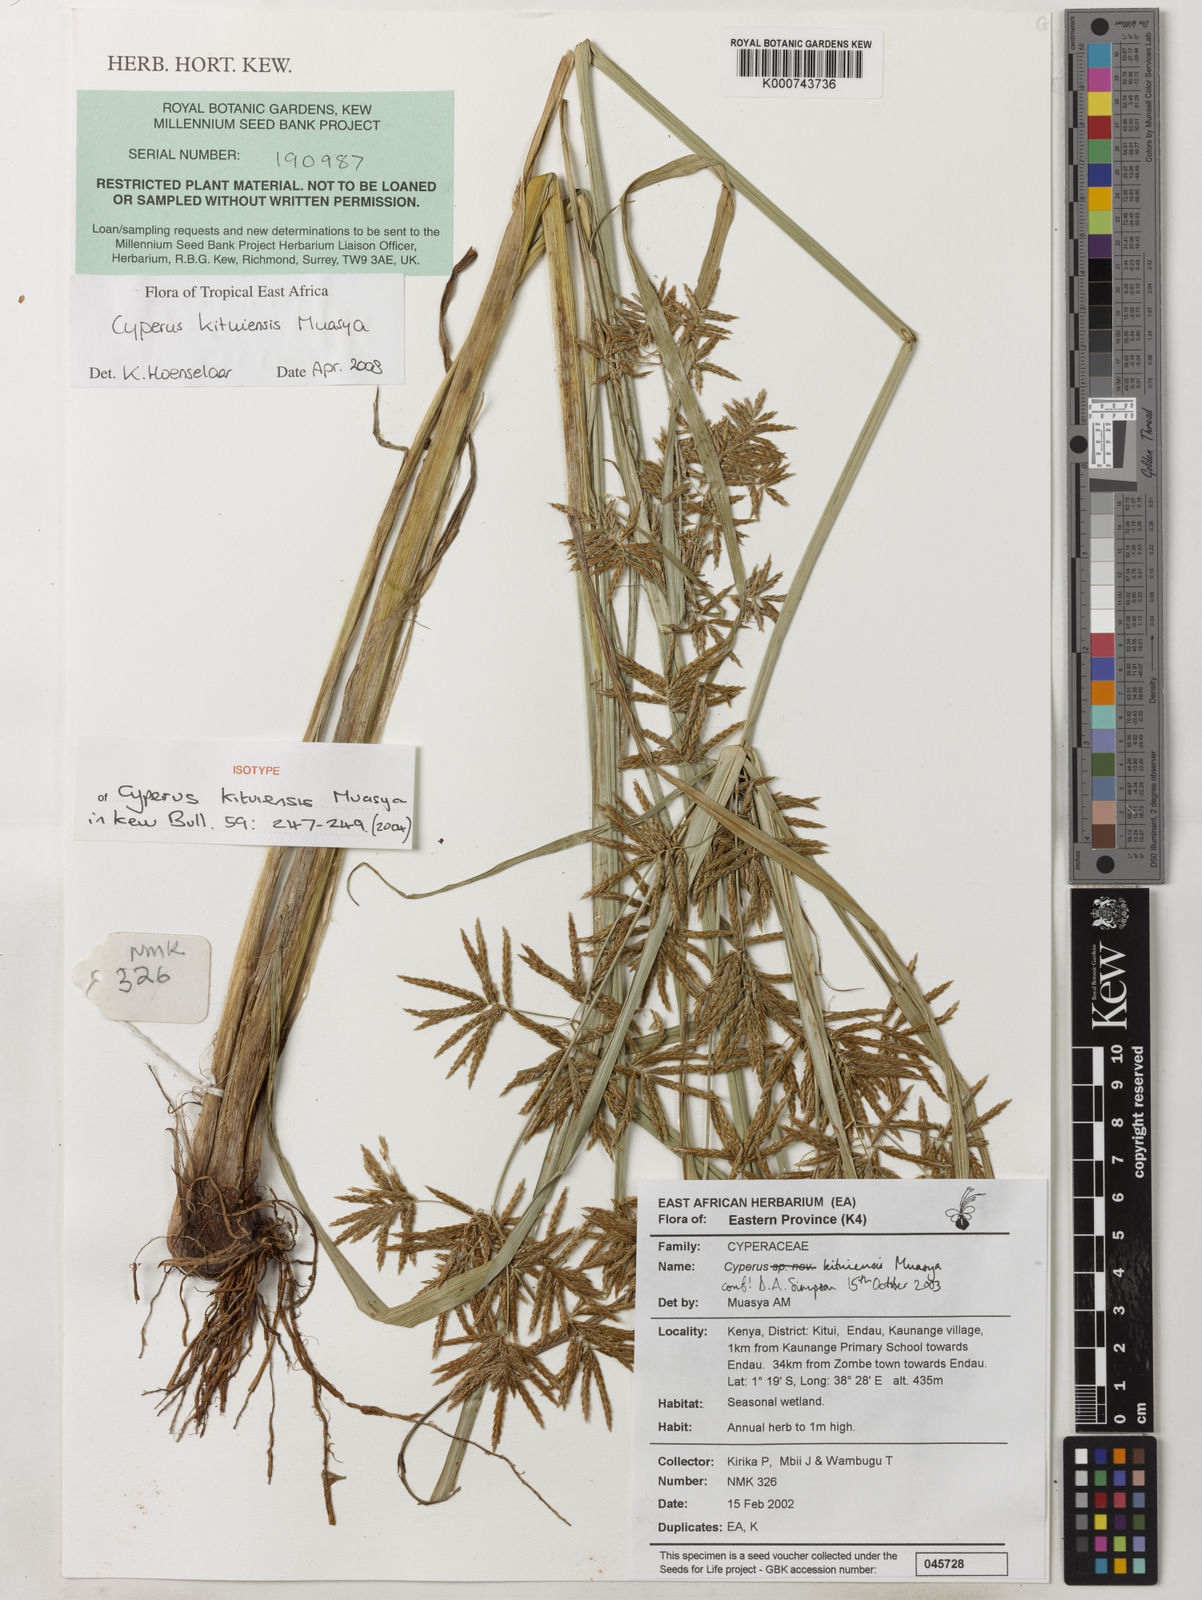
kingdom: Plantae
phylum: Tracheophyta
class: Liliopsida
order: Poales
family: Cyperaceae
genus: Cyperus
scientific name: Cyperus kituiensis
